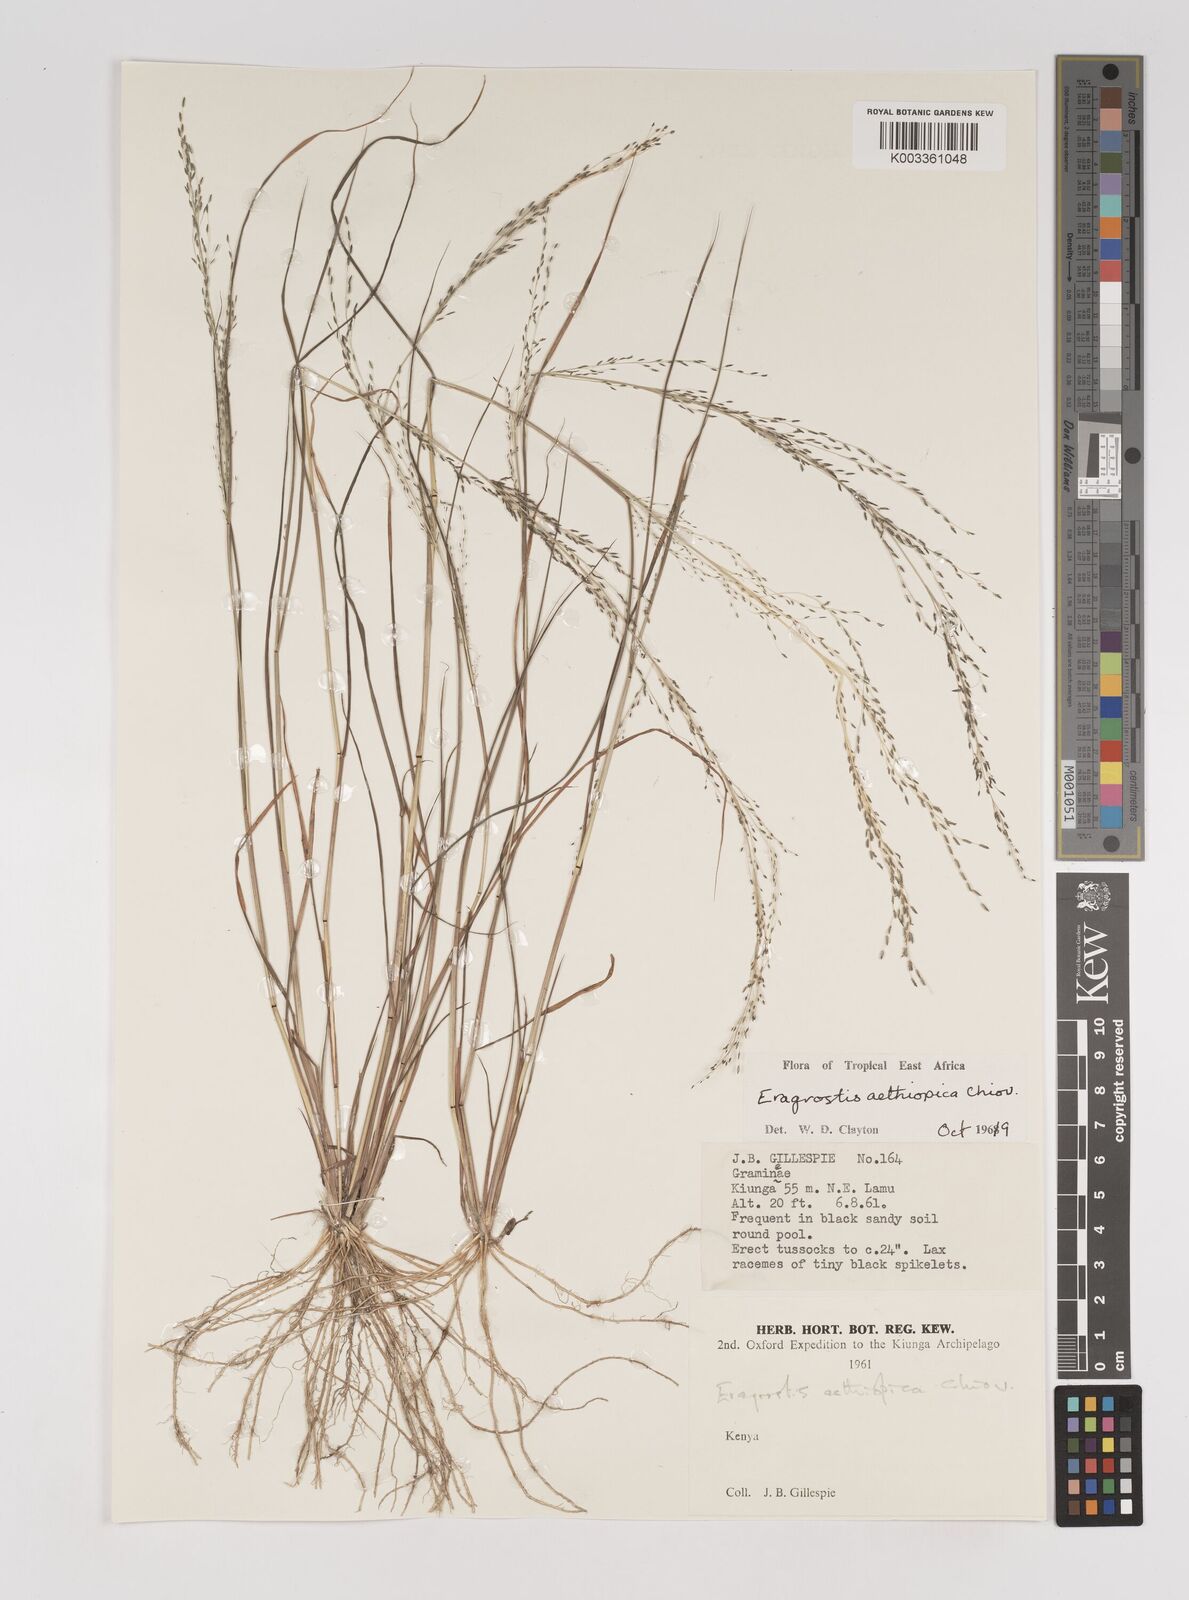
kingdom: Plantae
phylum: Tracheophyta
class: Liliopsida
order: Poales
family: Poaceae
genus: Eragrostis
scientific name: Eragrostis aethiopica
